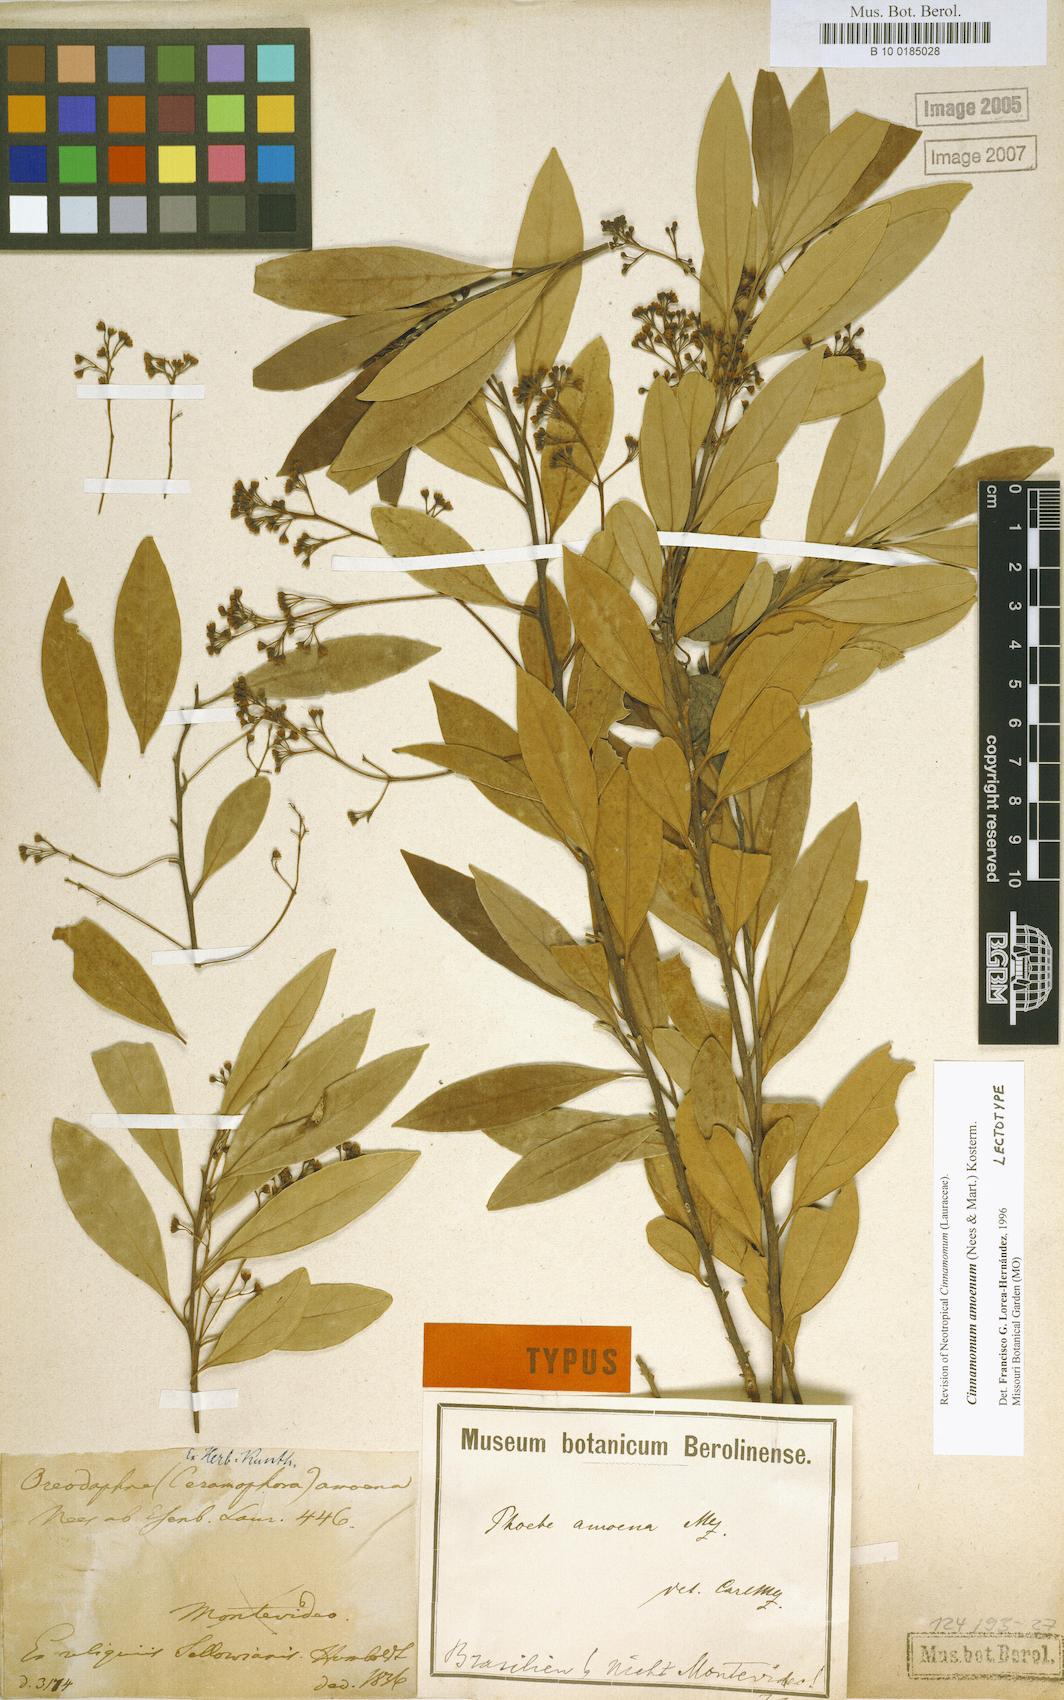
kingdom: Plantae
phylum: Tracheophyta
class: Magnoliopsida
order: Laurales
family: Lauraceae
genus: Aiouea
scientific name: Aiouea amoena
